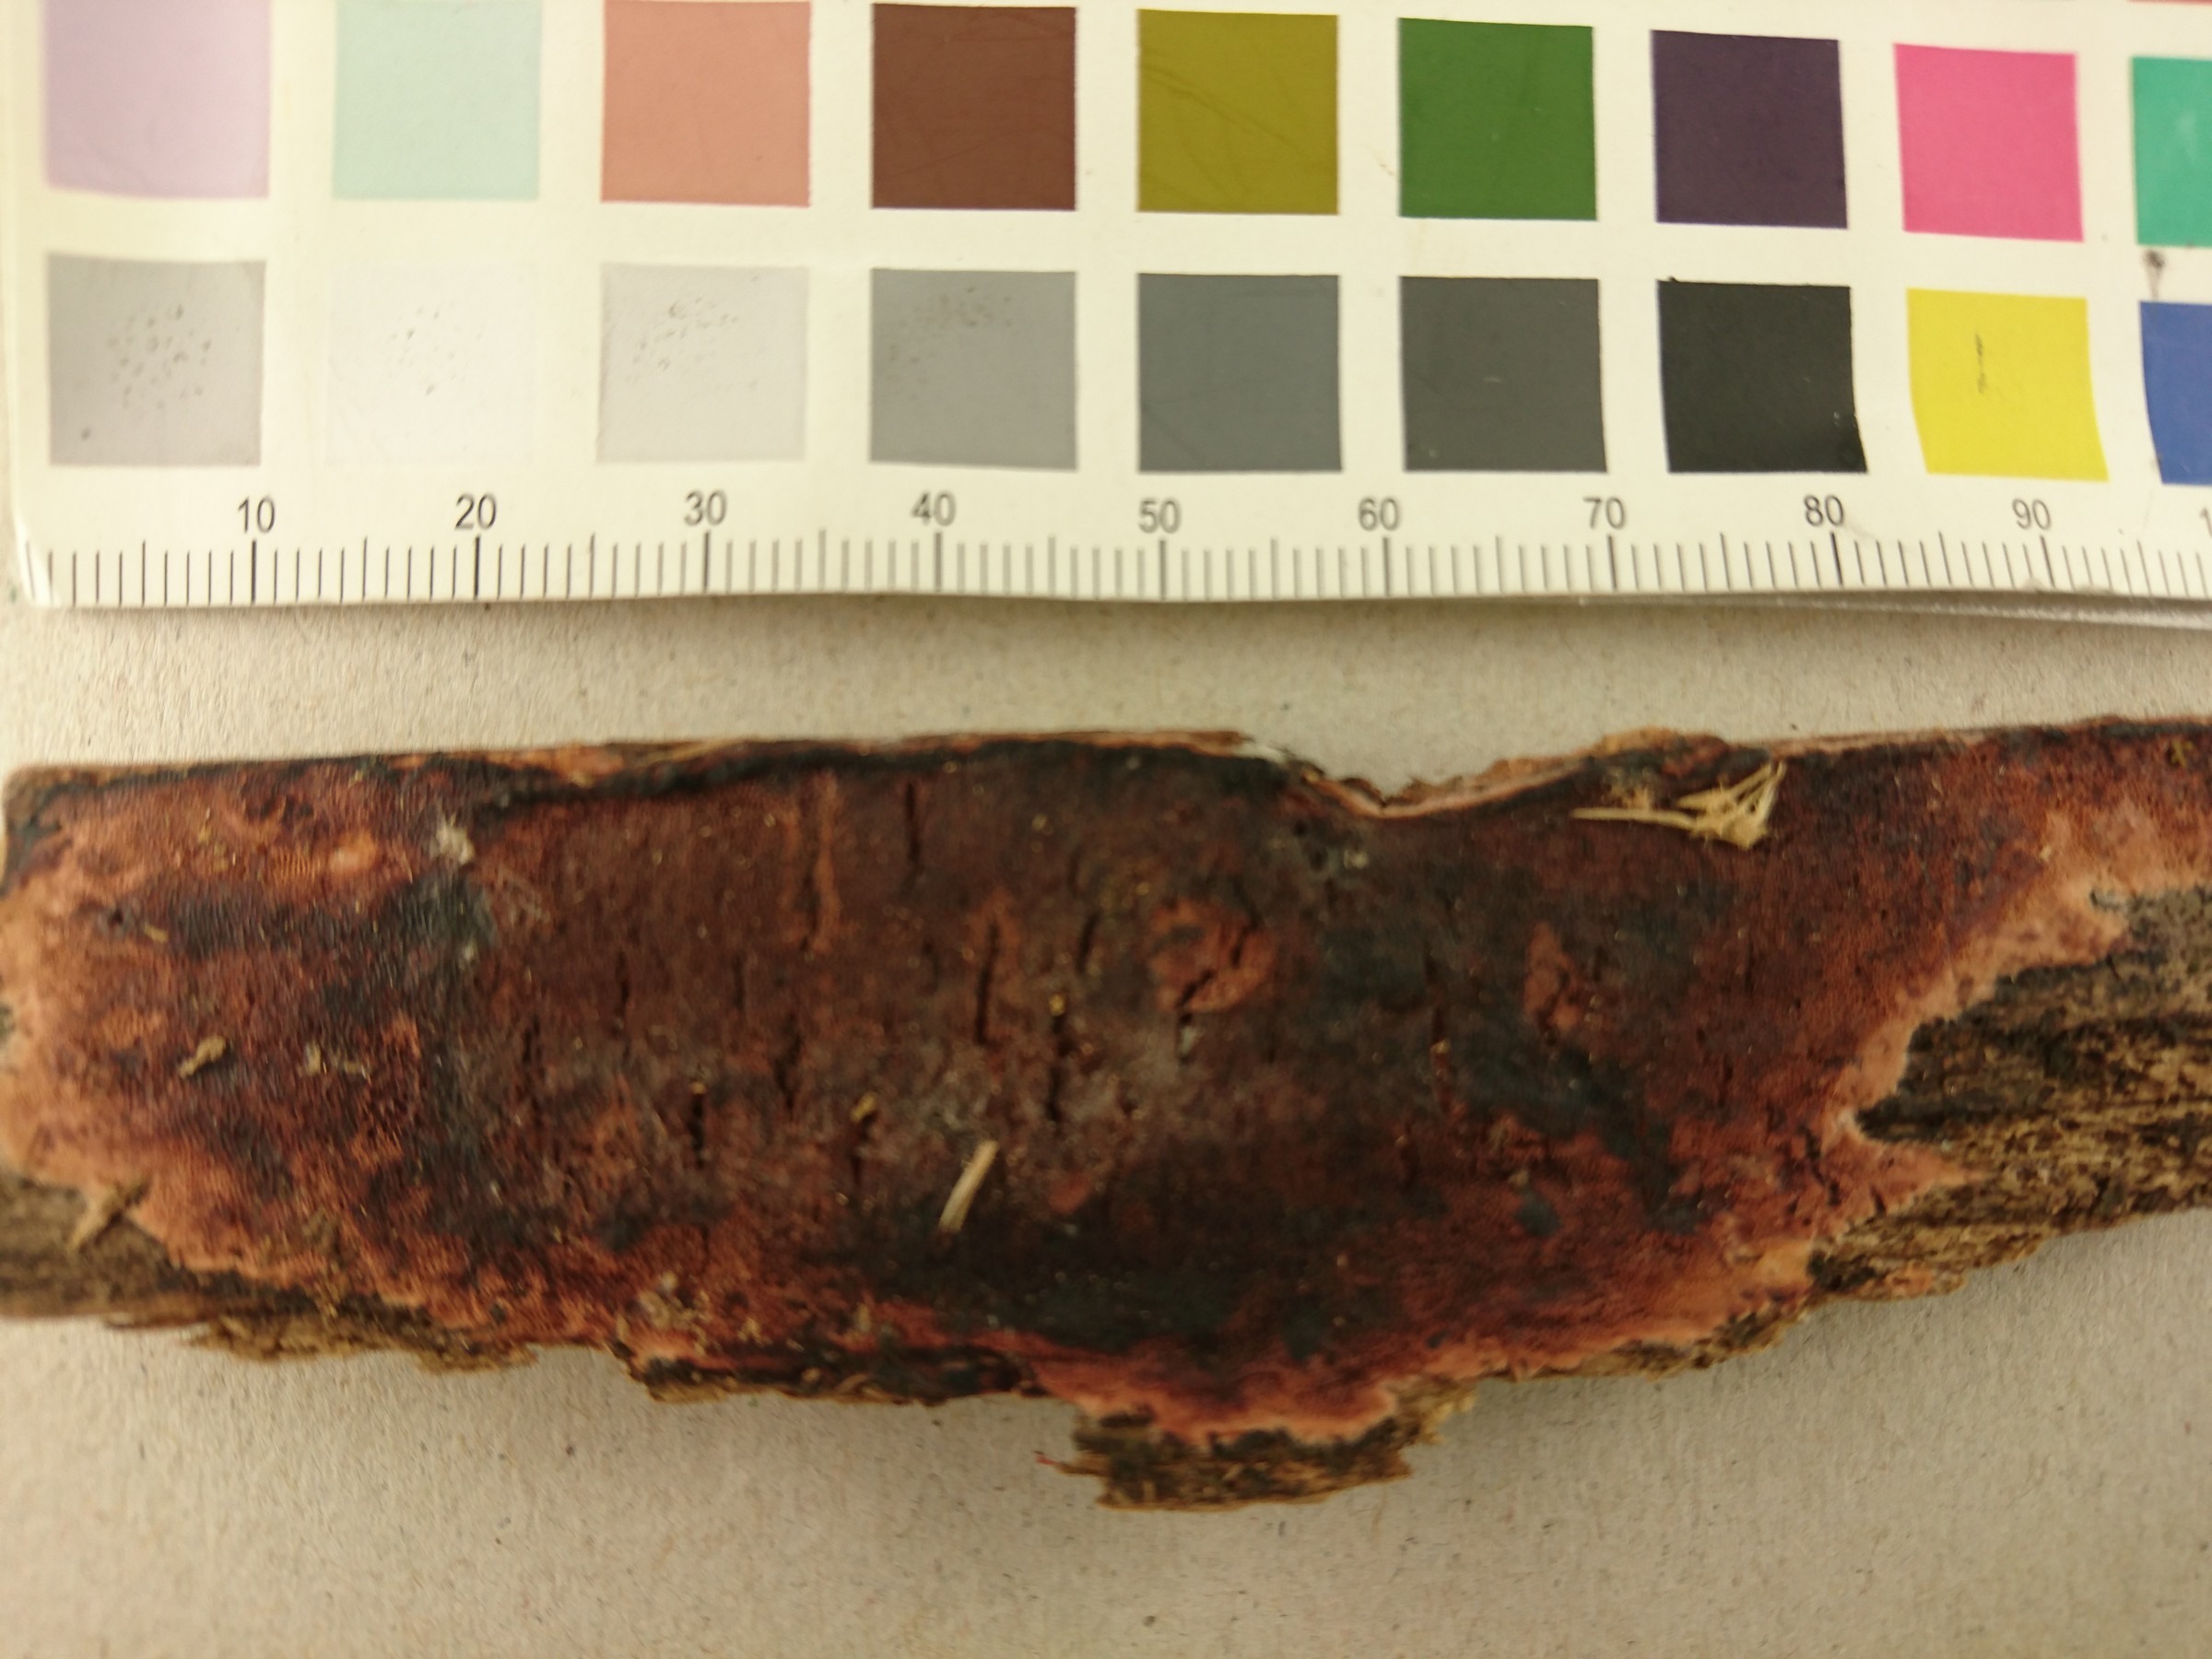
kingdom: Fungi
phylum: Basidiomycota
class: Agaricomycetes
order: Polyporales
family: Polyporaceae
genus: Erastia
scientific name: Erastia ochraceolateritia
